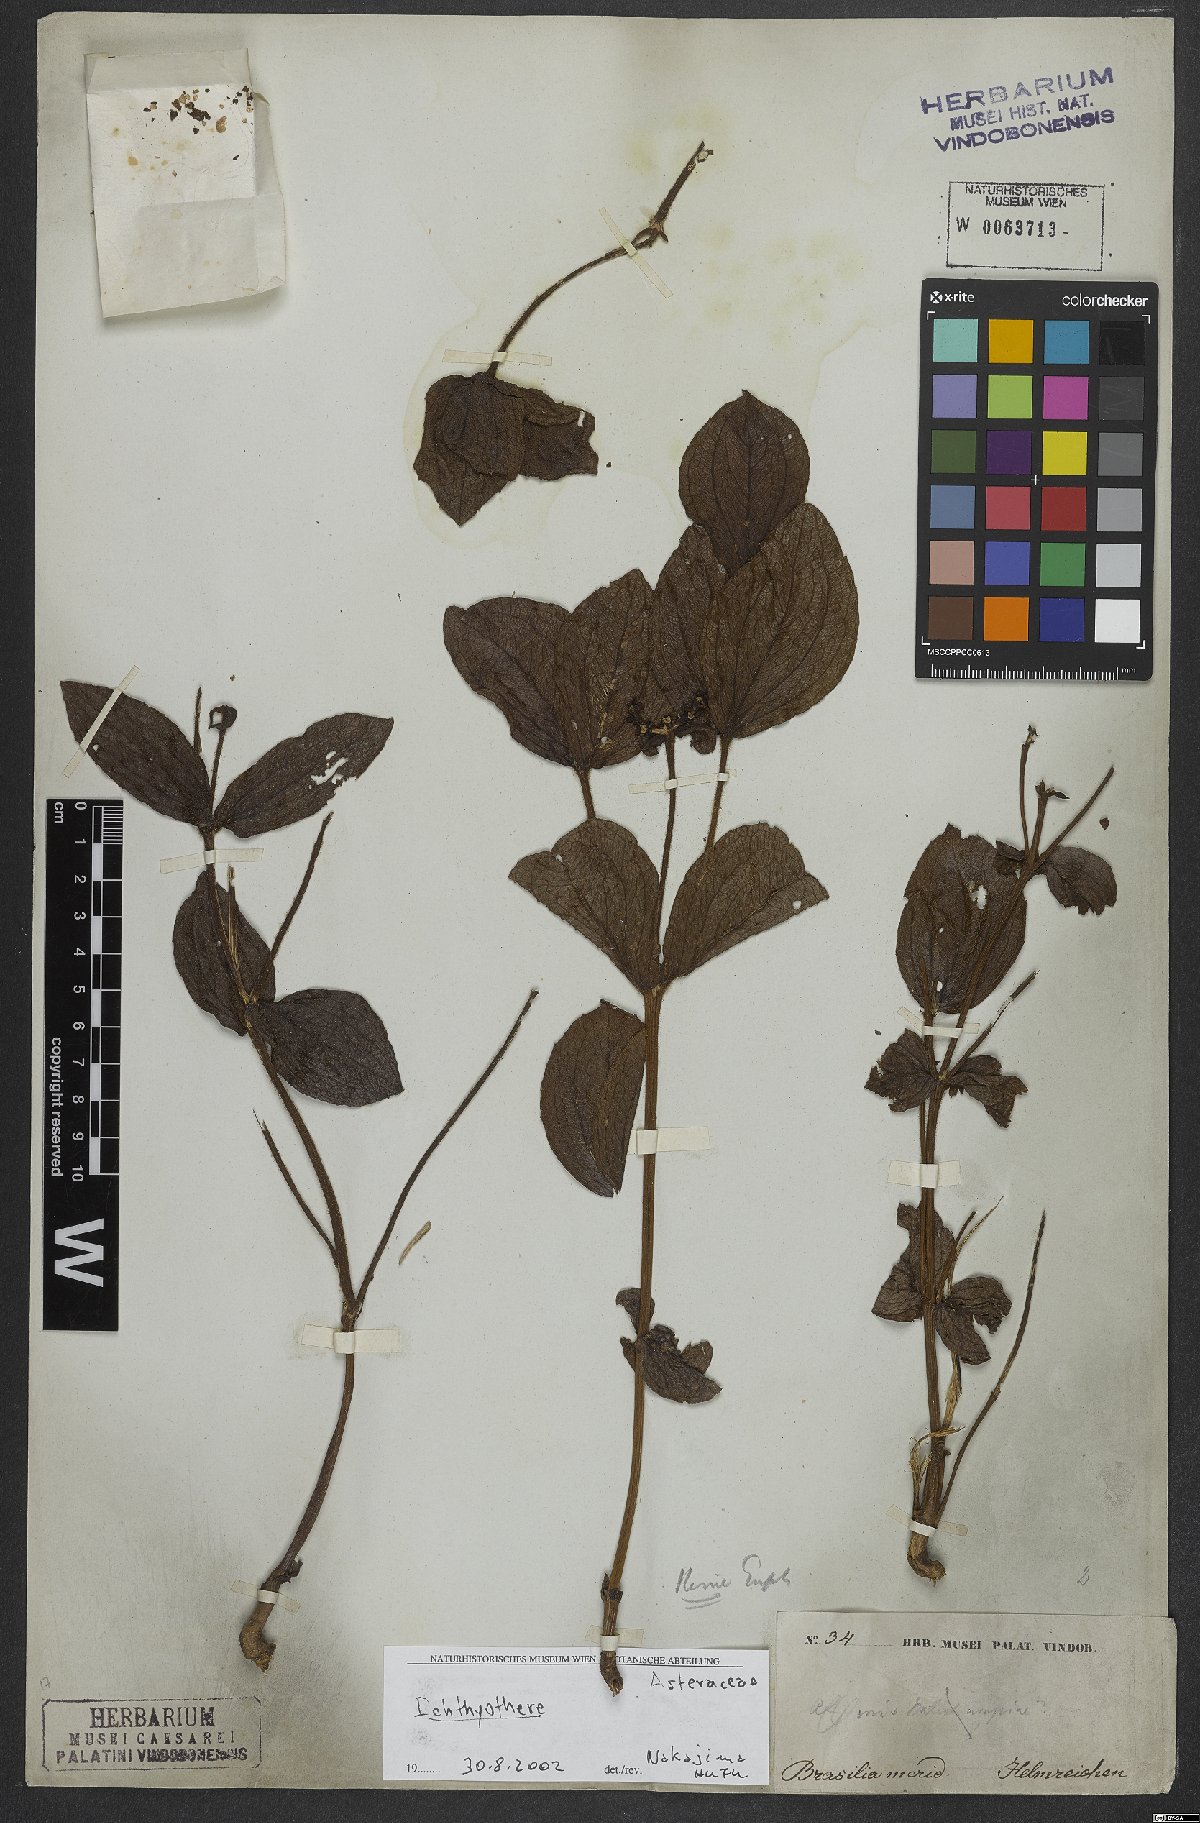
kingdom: Plantae
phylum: Tracheophyta
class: Magnoliopsida
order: Asterales
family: Asteraceae
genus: Ichthyothere
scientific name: Ichthyothere
